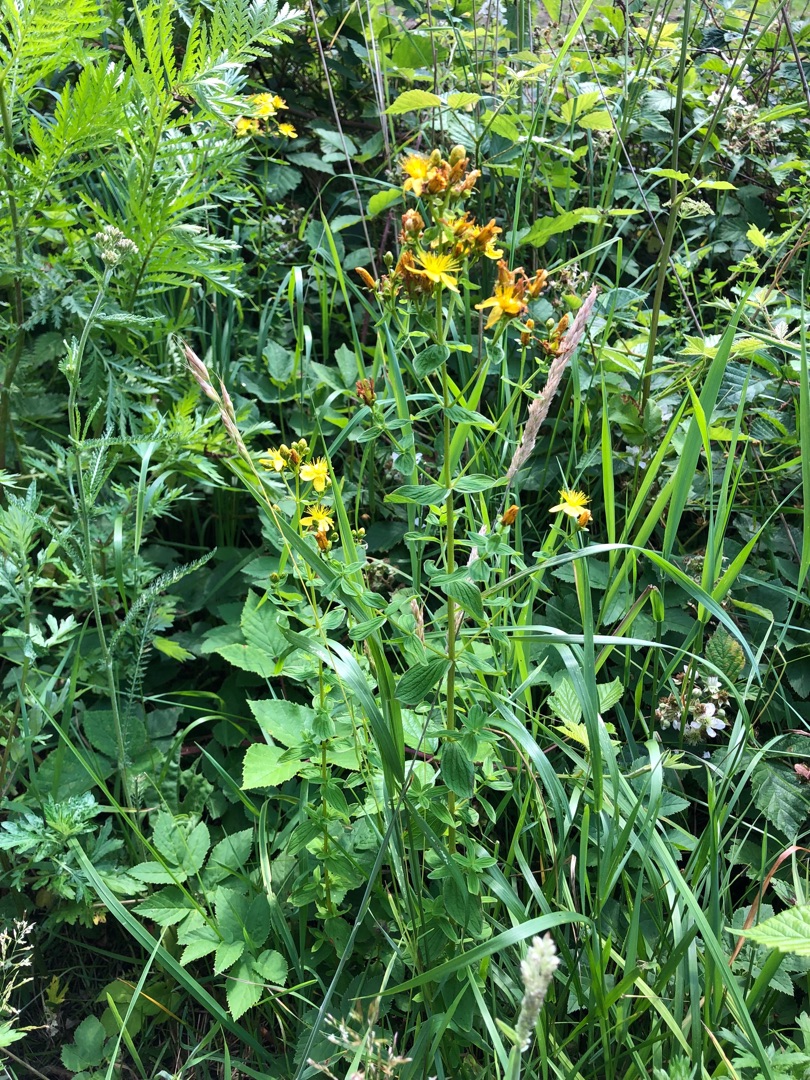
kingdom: Plantae
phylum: Tracheophyta
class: Magnoliopsida
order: Malpighiales
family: Hypericaceae
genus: Hypericum
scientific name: Hypericum maculatum
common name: Kantet perikon
